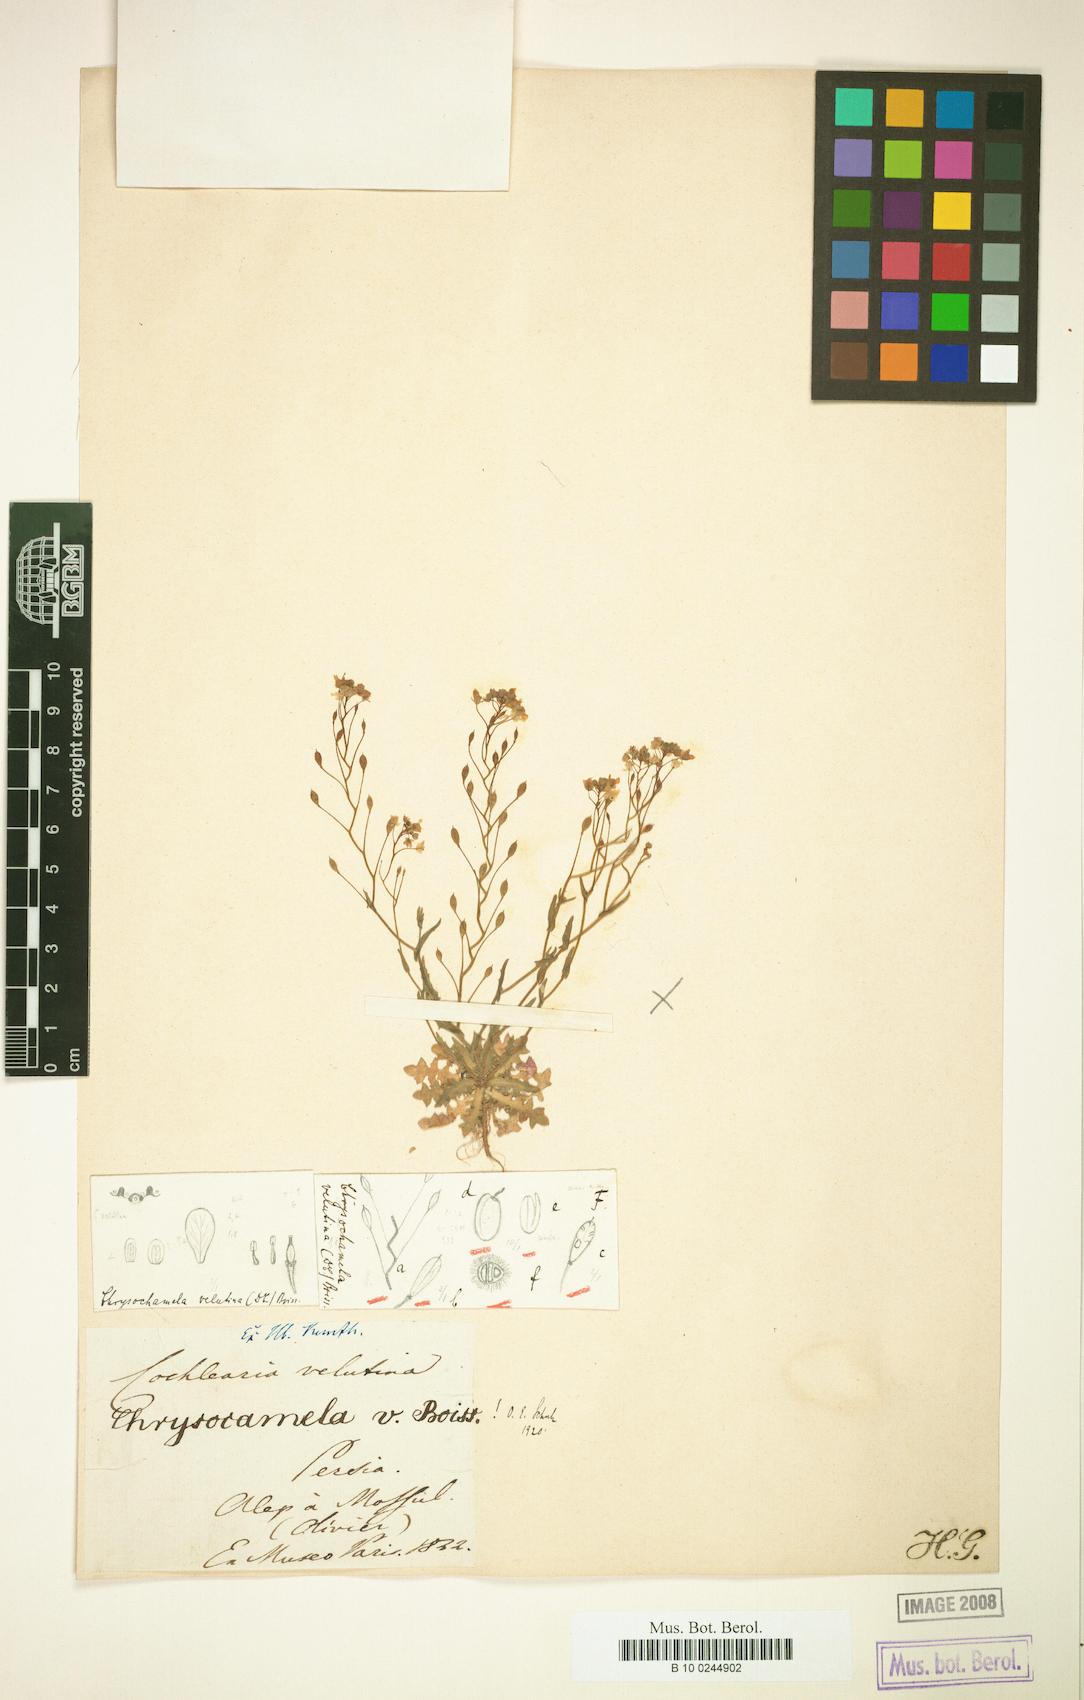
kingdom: Plantae
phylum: Tracheophyta
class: Magnoliopsida
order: Brassicales
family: Brassicaceae
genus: Chrysochamela
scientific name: Chrysochamela velutina
